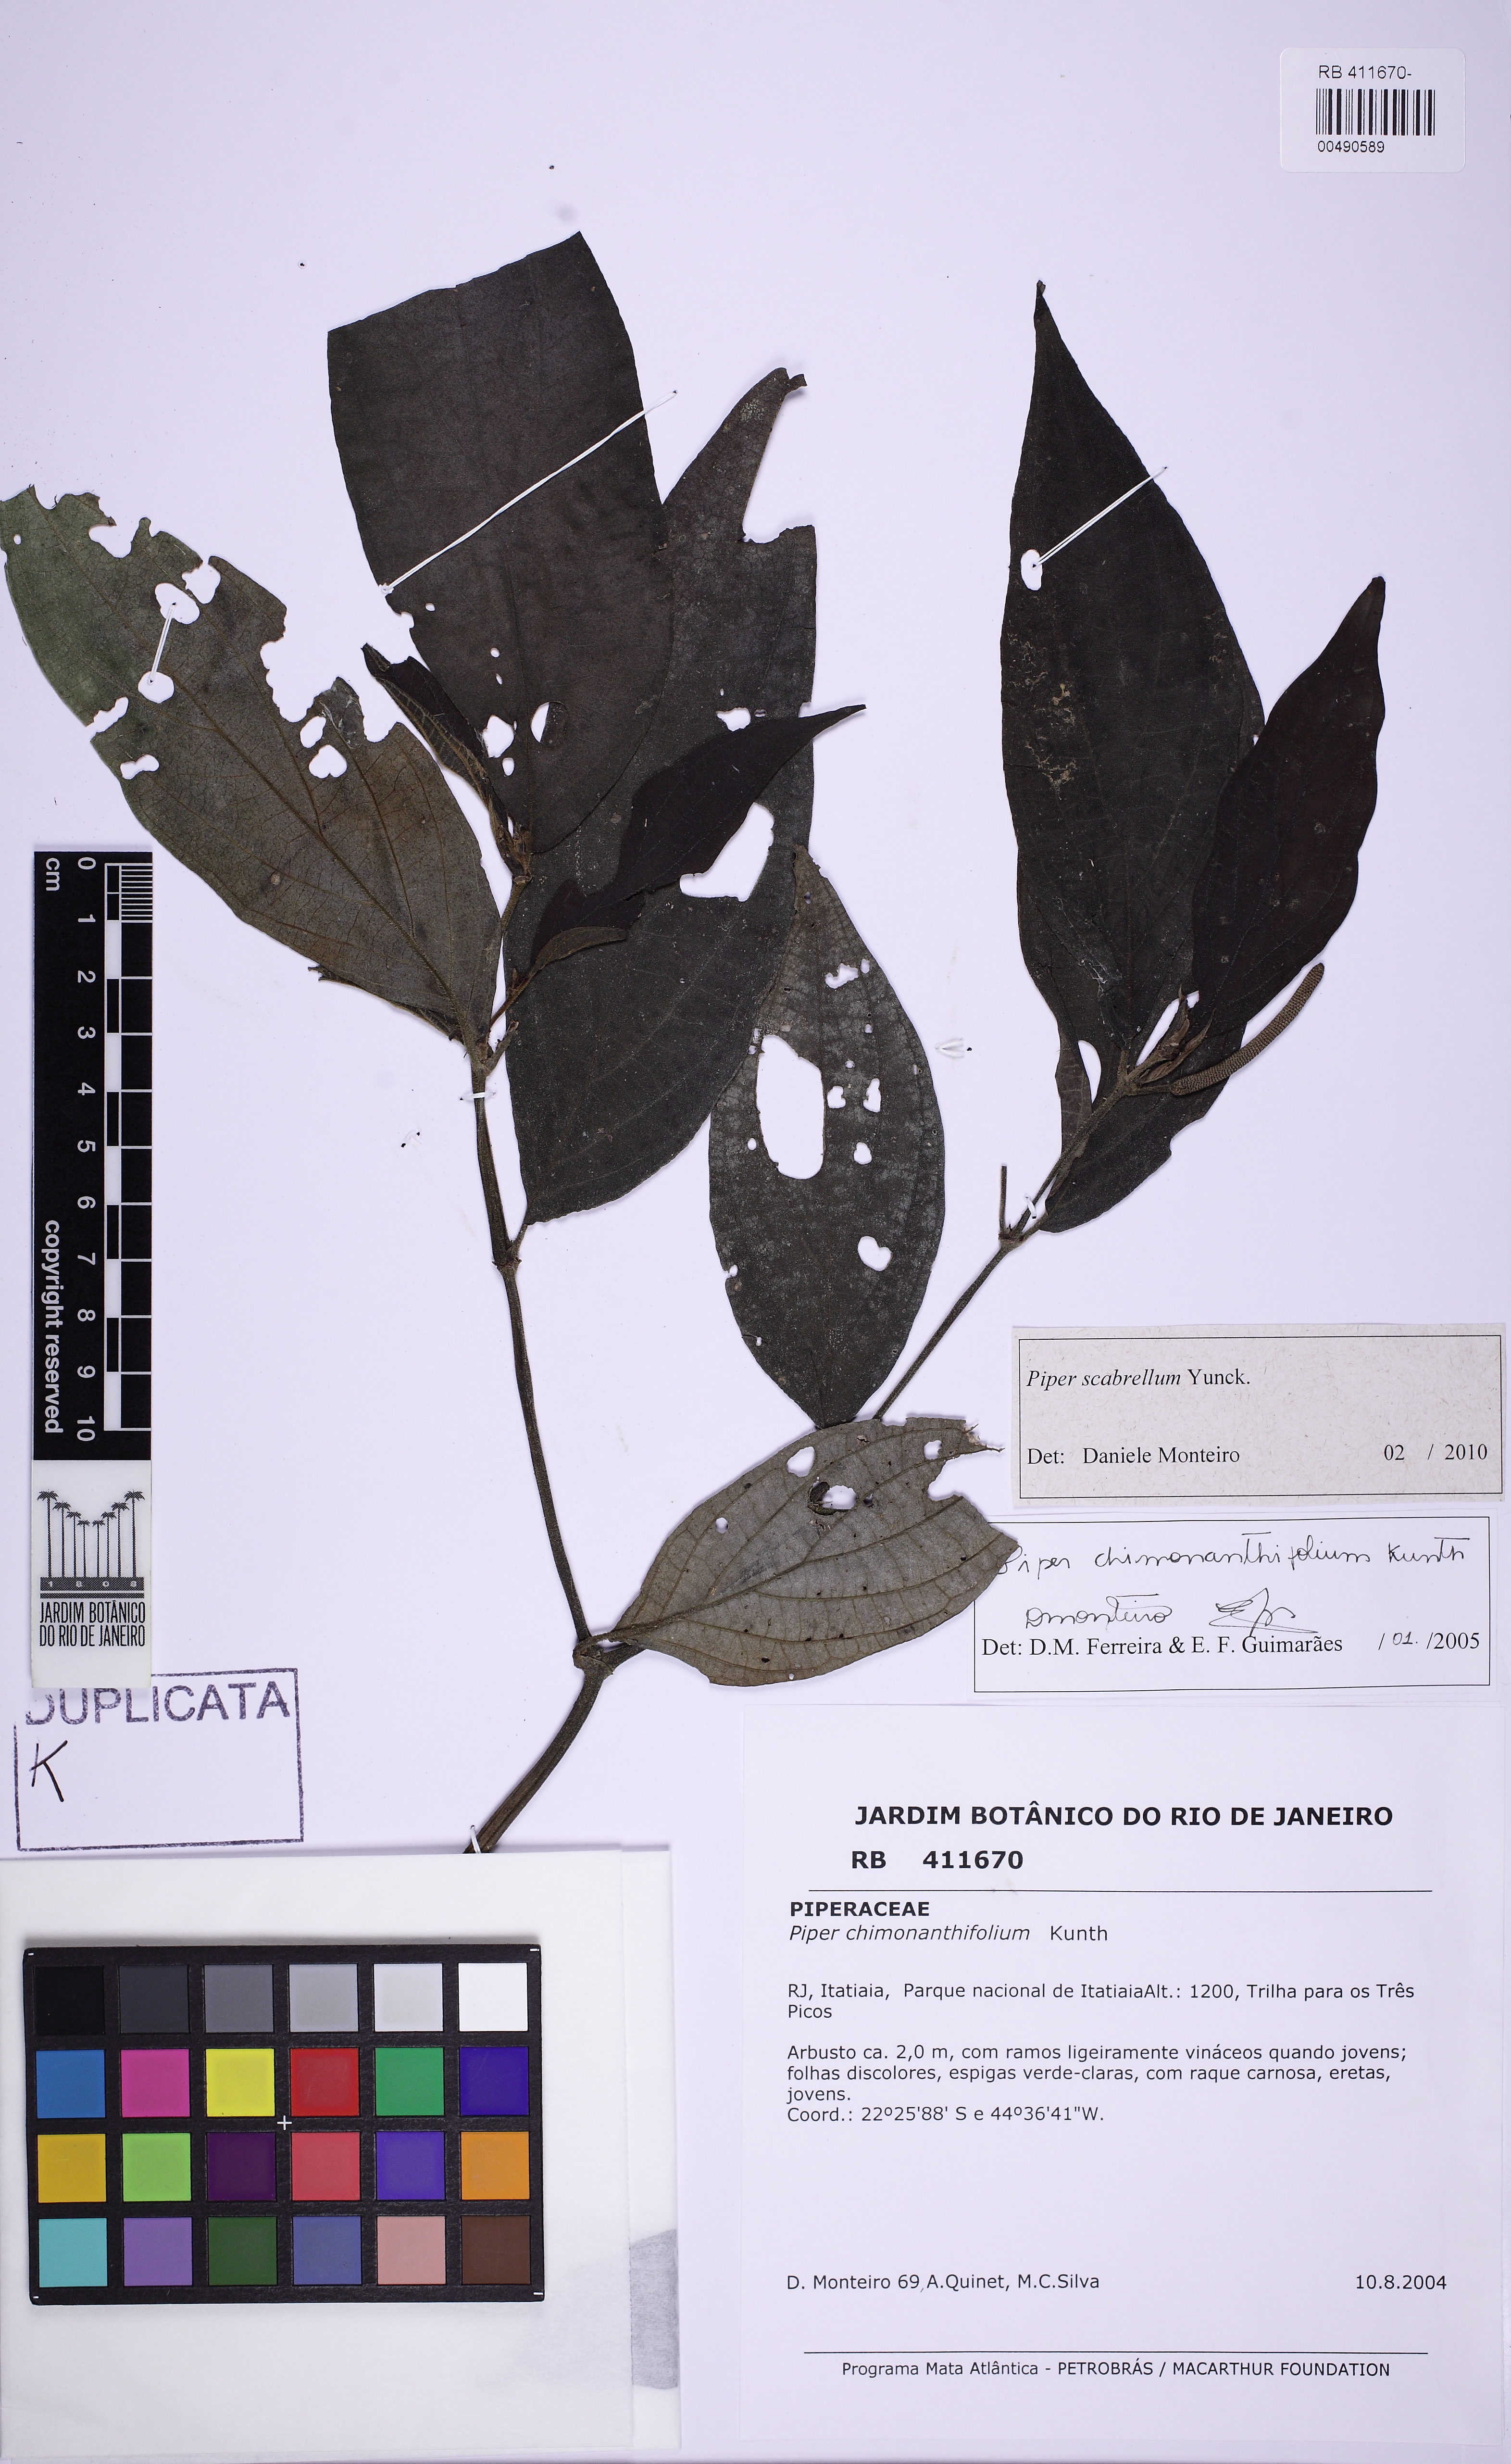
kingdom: Plantae
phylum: Tracheophyta
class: Magnoliopsida
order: Piperales
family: Piperaceae
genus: Piper
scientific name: Piper scabrellum
